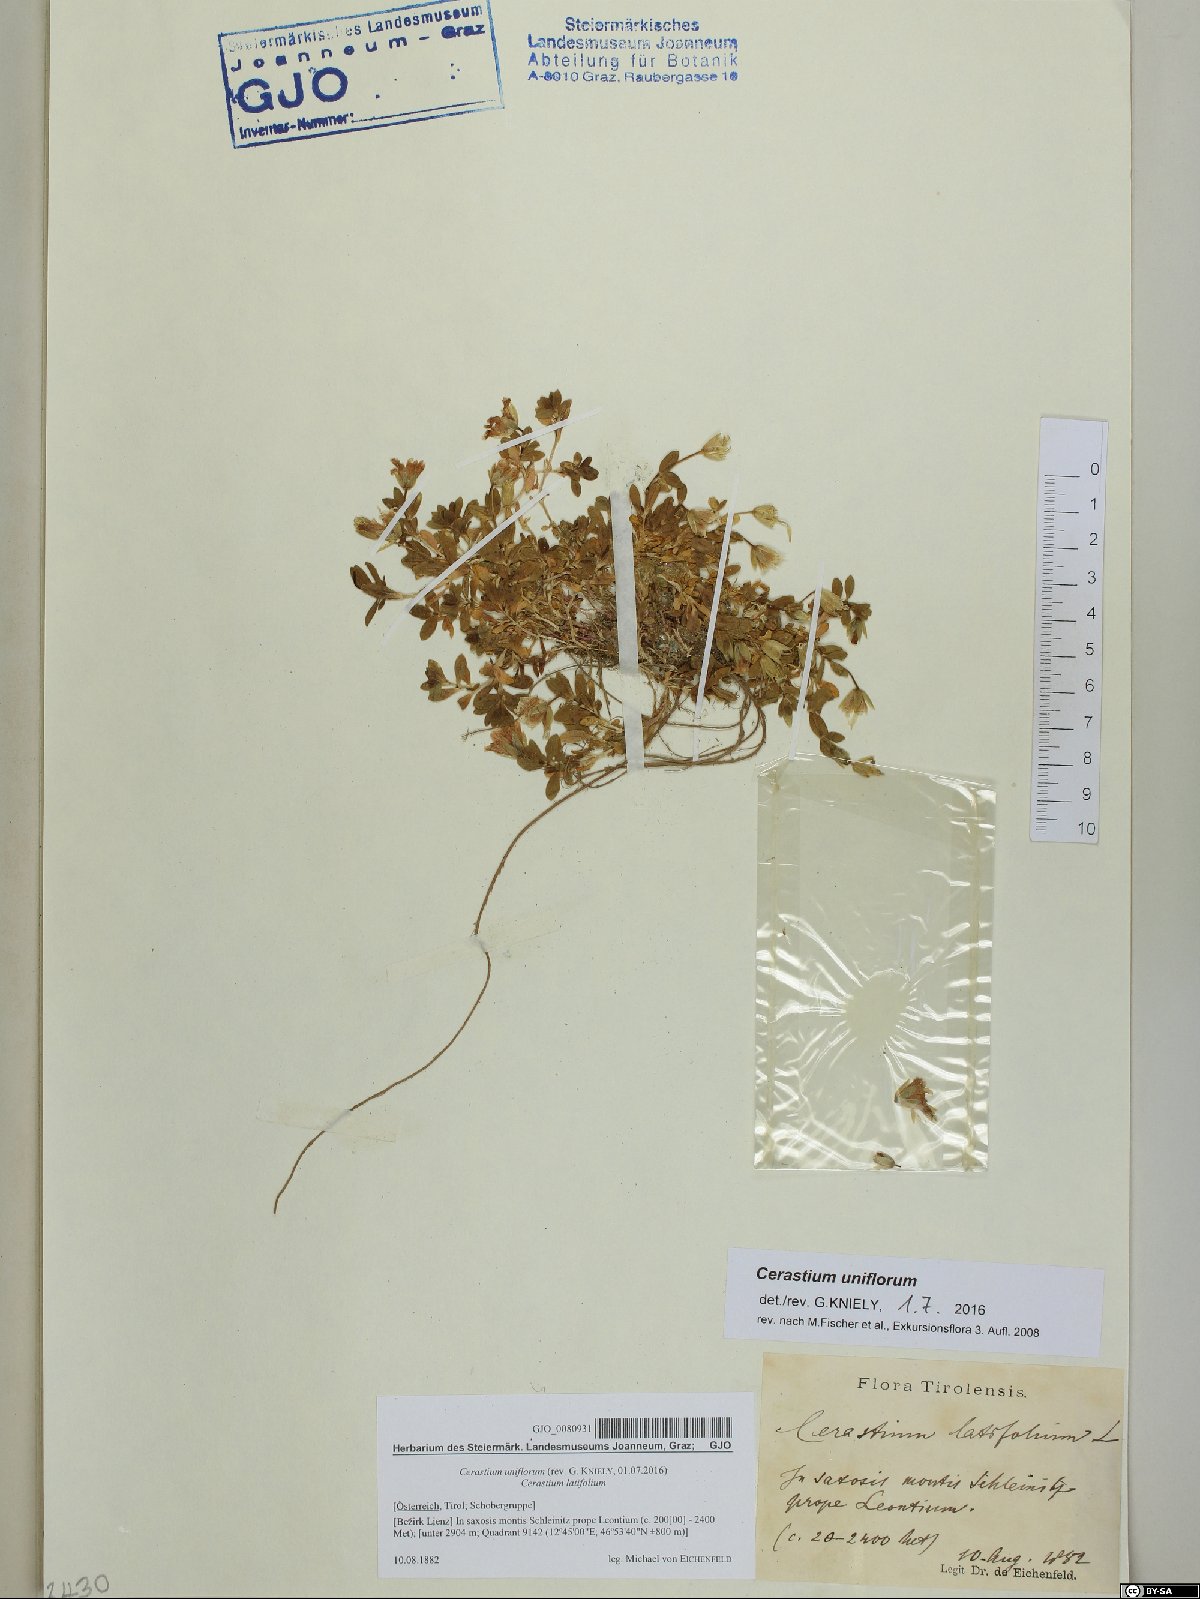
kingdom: Plantae
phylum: Tracheophyta
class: Magnoliopsida
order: Caryophyllales
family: Caryophyllaceae
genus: Cerastium
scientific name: Cerastium uniflorum
